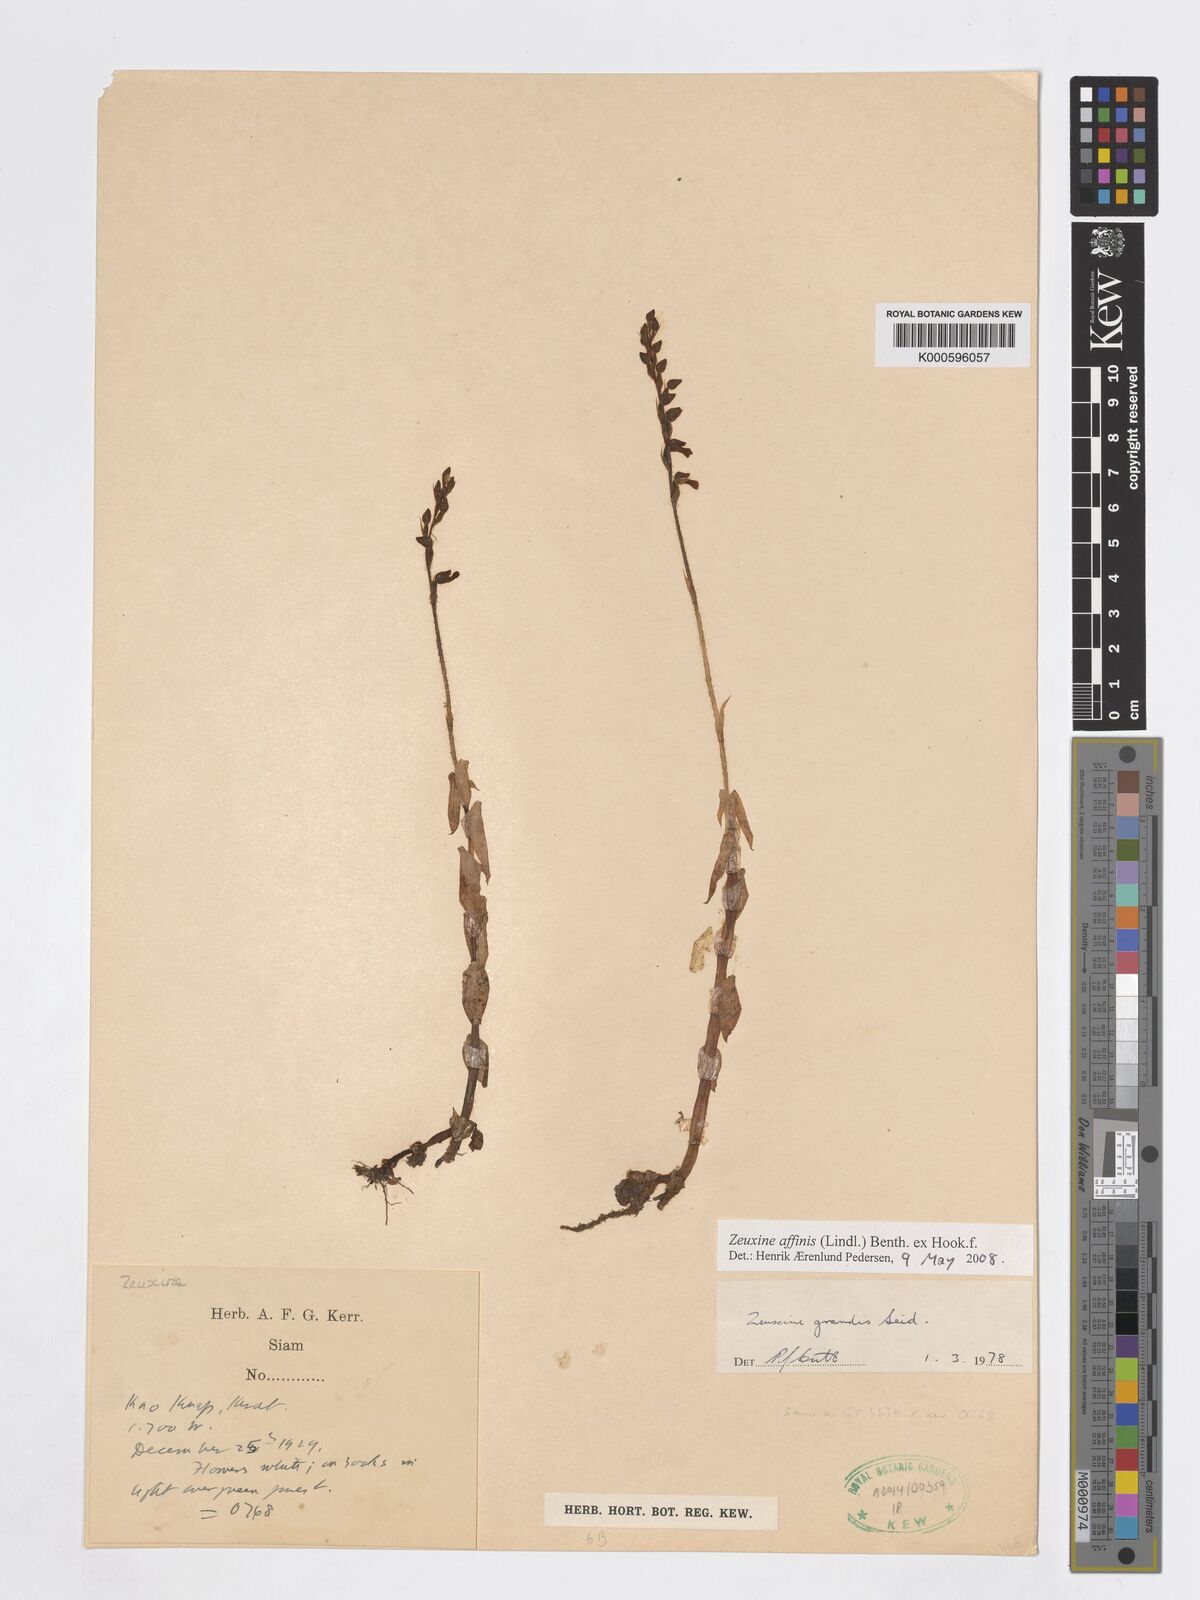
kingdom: Plantae
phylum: Tracheophyta
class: Liliopsida
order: Asparagales
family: Orchidaceae
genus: Zeuxine
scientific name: Zeuxine affinis
